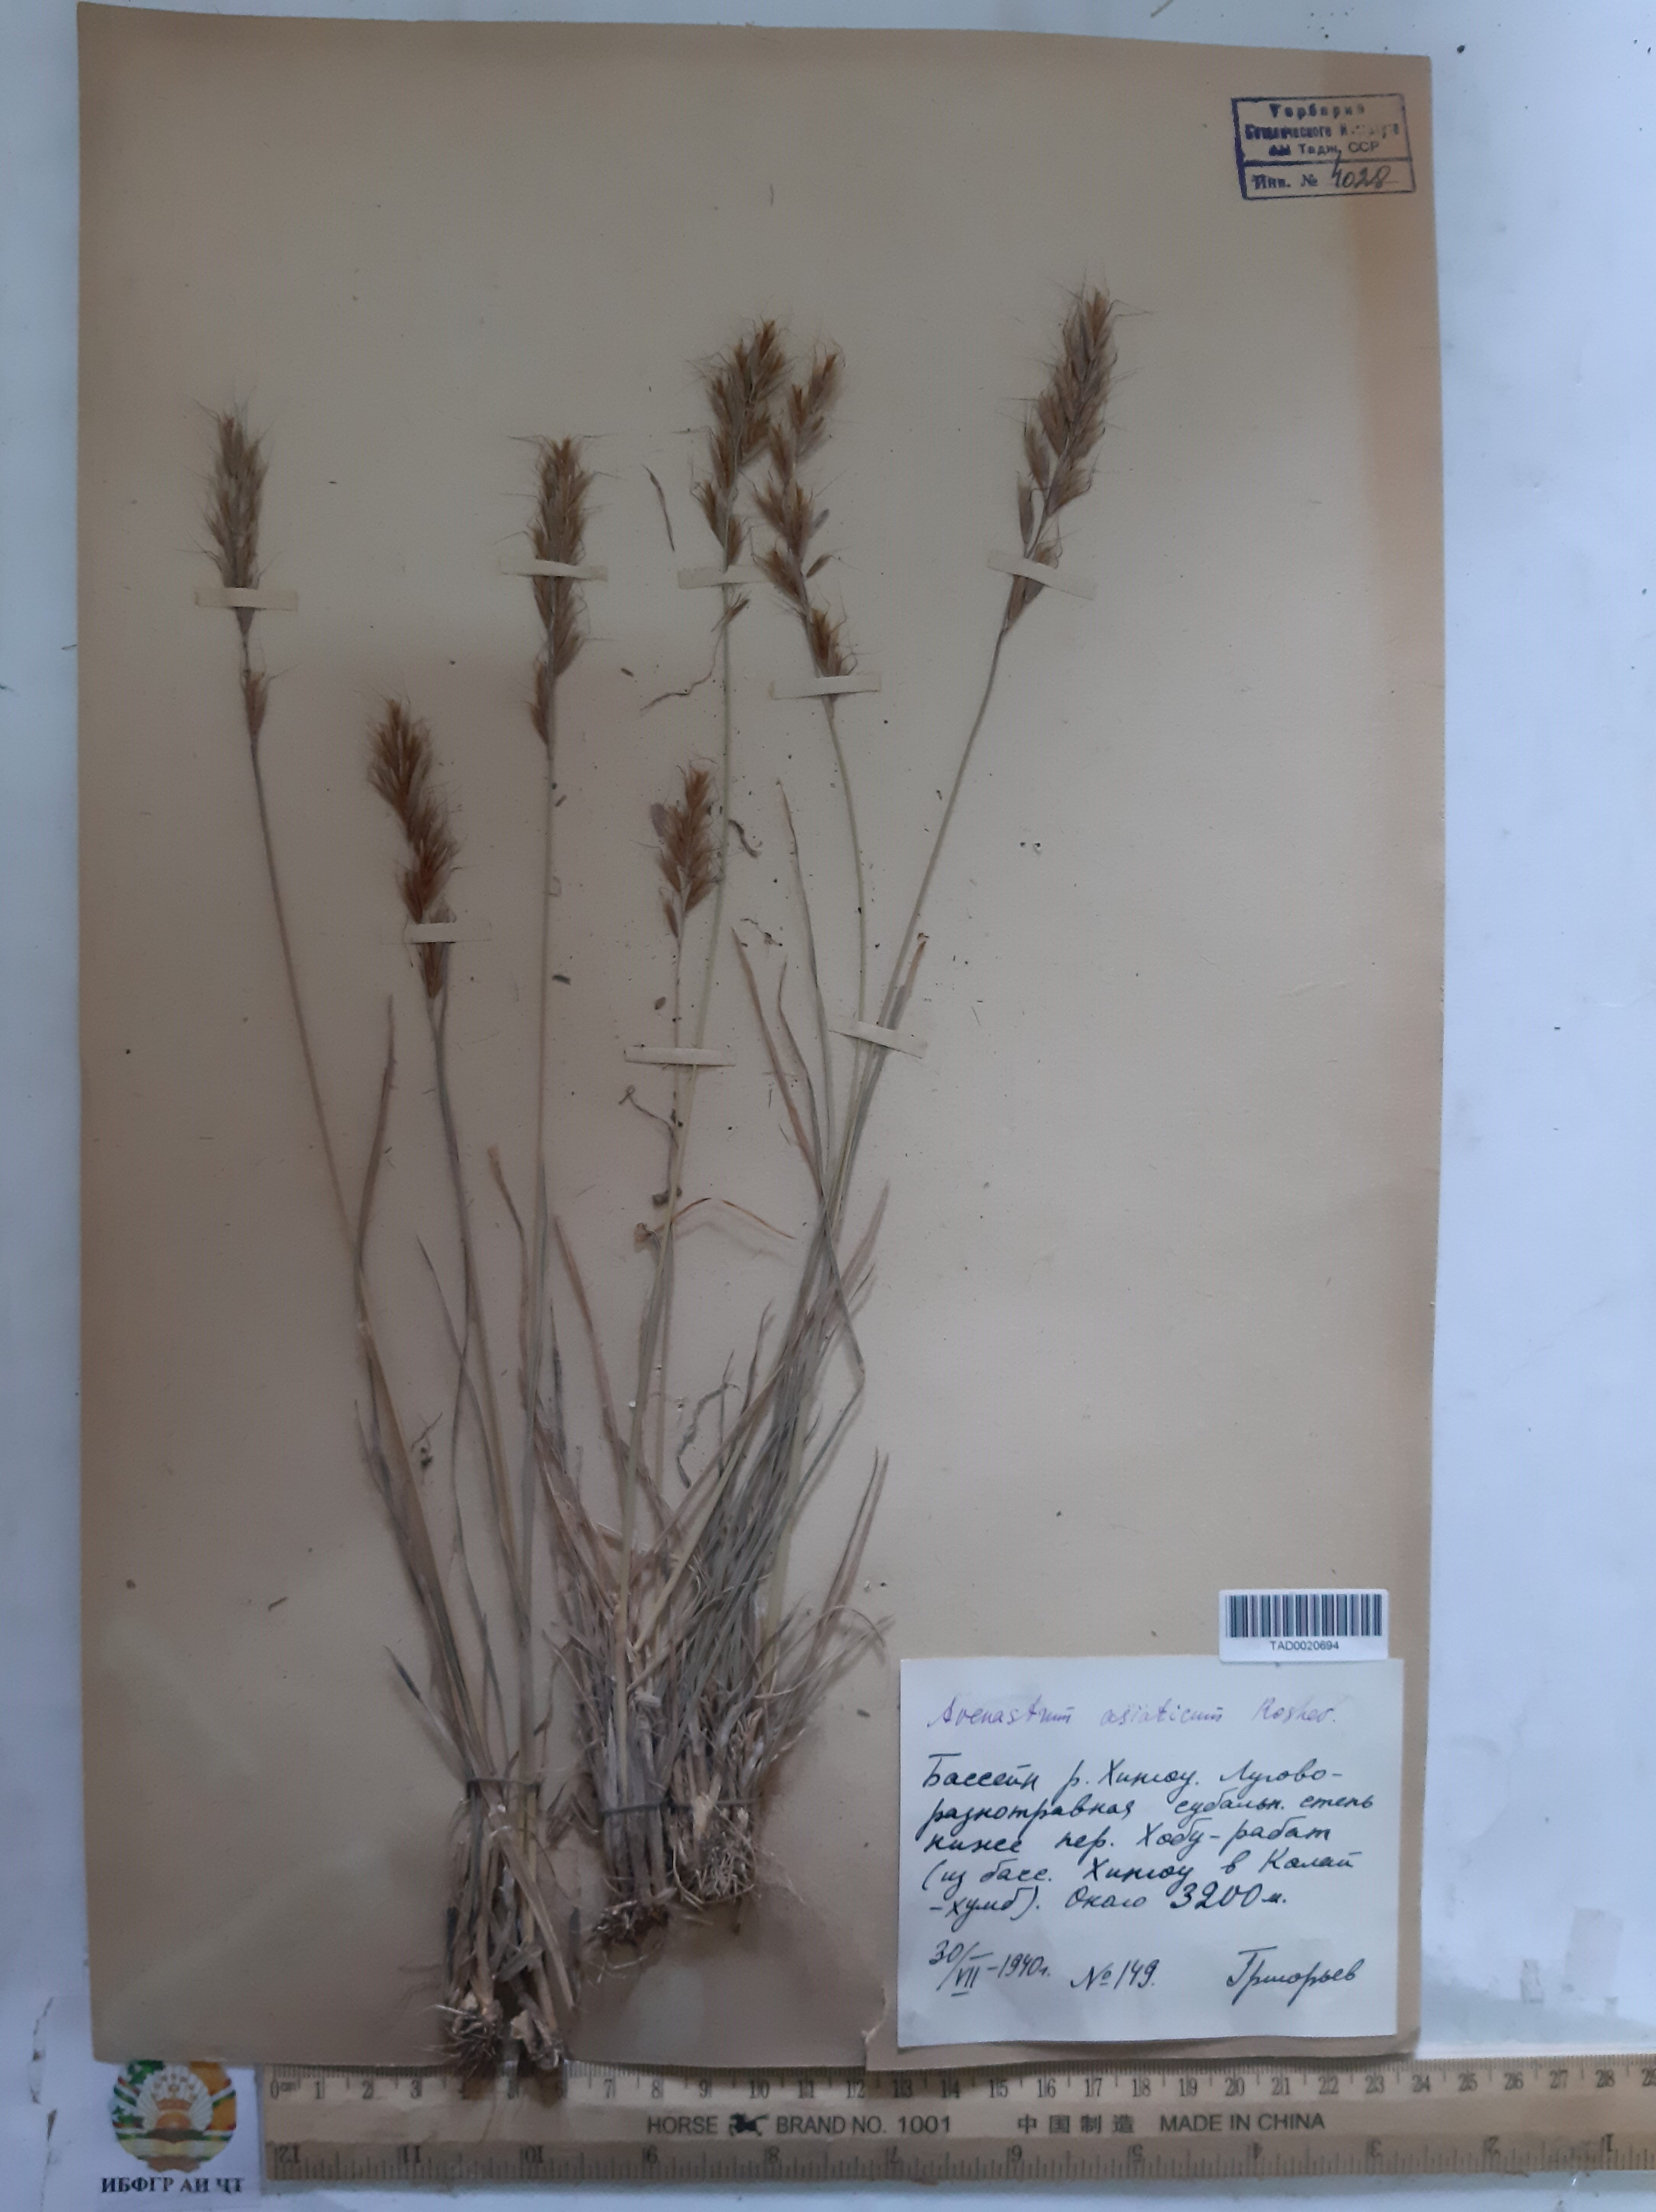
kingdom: Plantae
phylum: Tracheophyta
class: Liliopsida
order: Poales
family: Poaceae
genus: Helictochloa
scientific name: Helictochloa hookeri
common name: Hooker's alpine oatgrass
